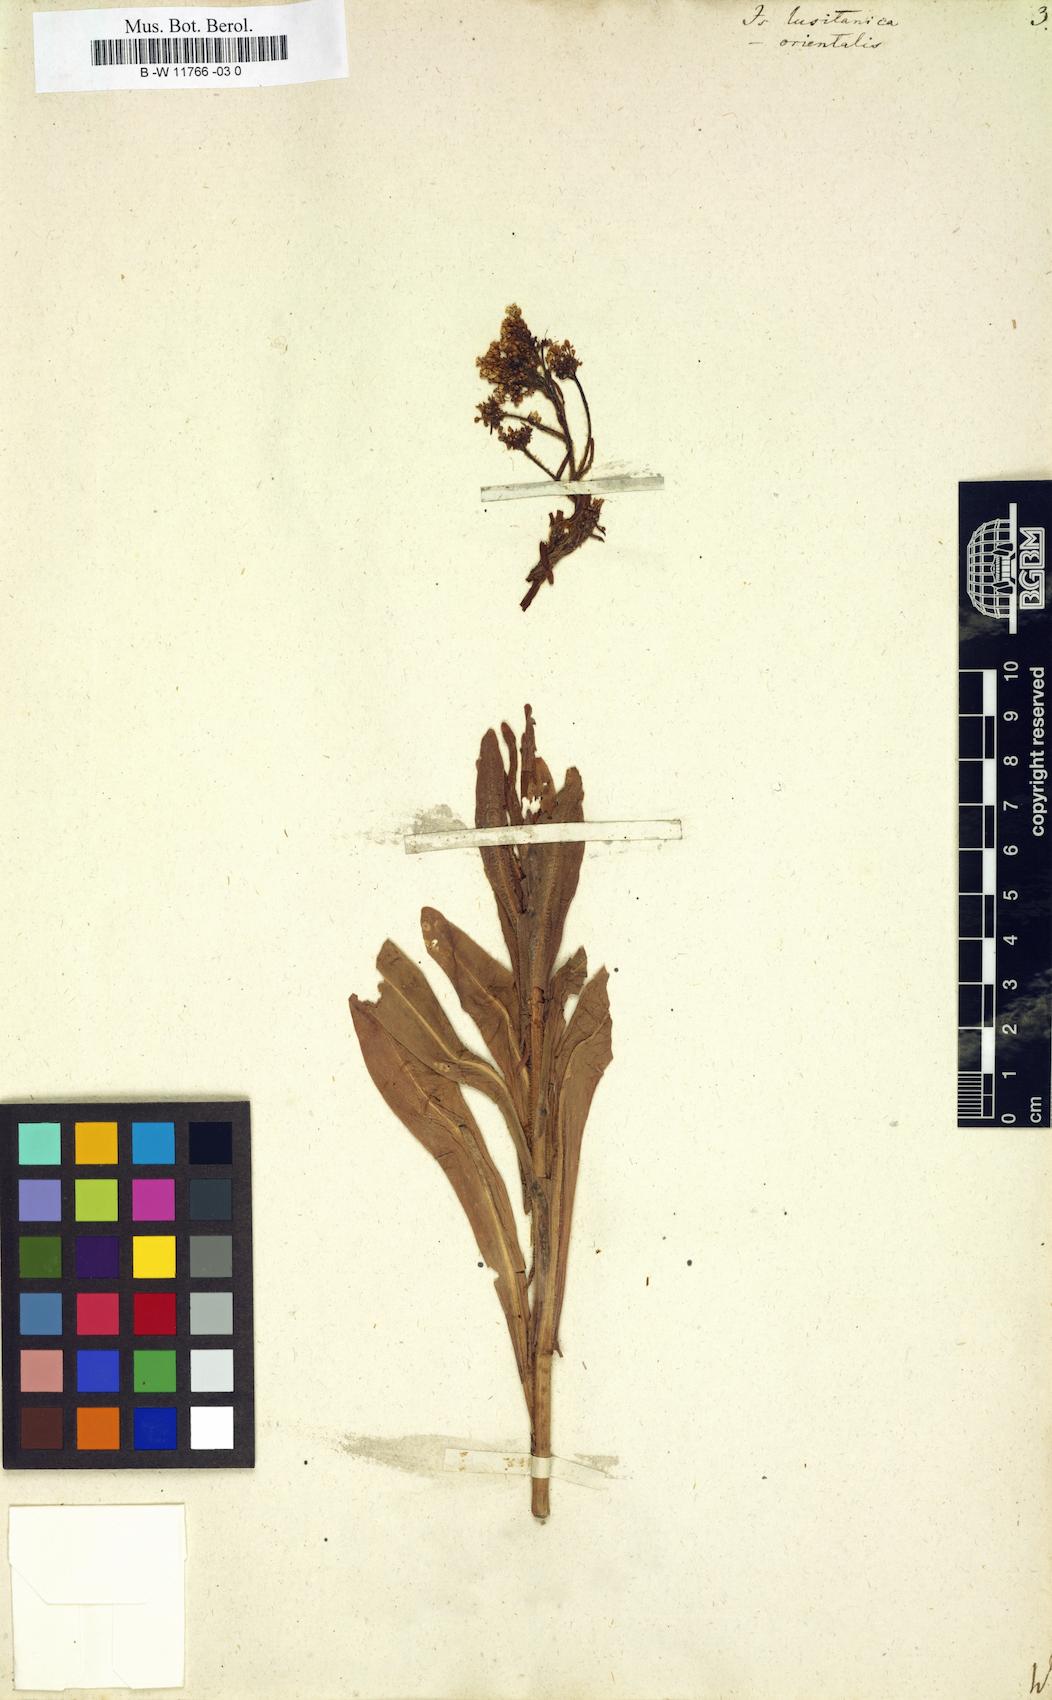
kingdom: Plantae
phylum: Tracheophyta
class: Magnoliopsida
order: Brassicales
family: Brassicaceae
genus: Isatis
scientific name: Isatis lusitanica
